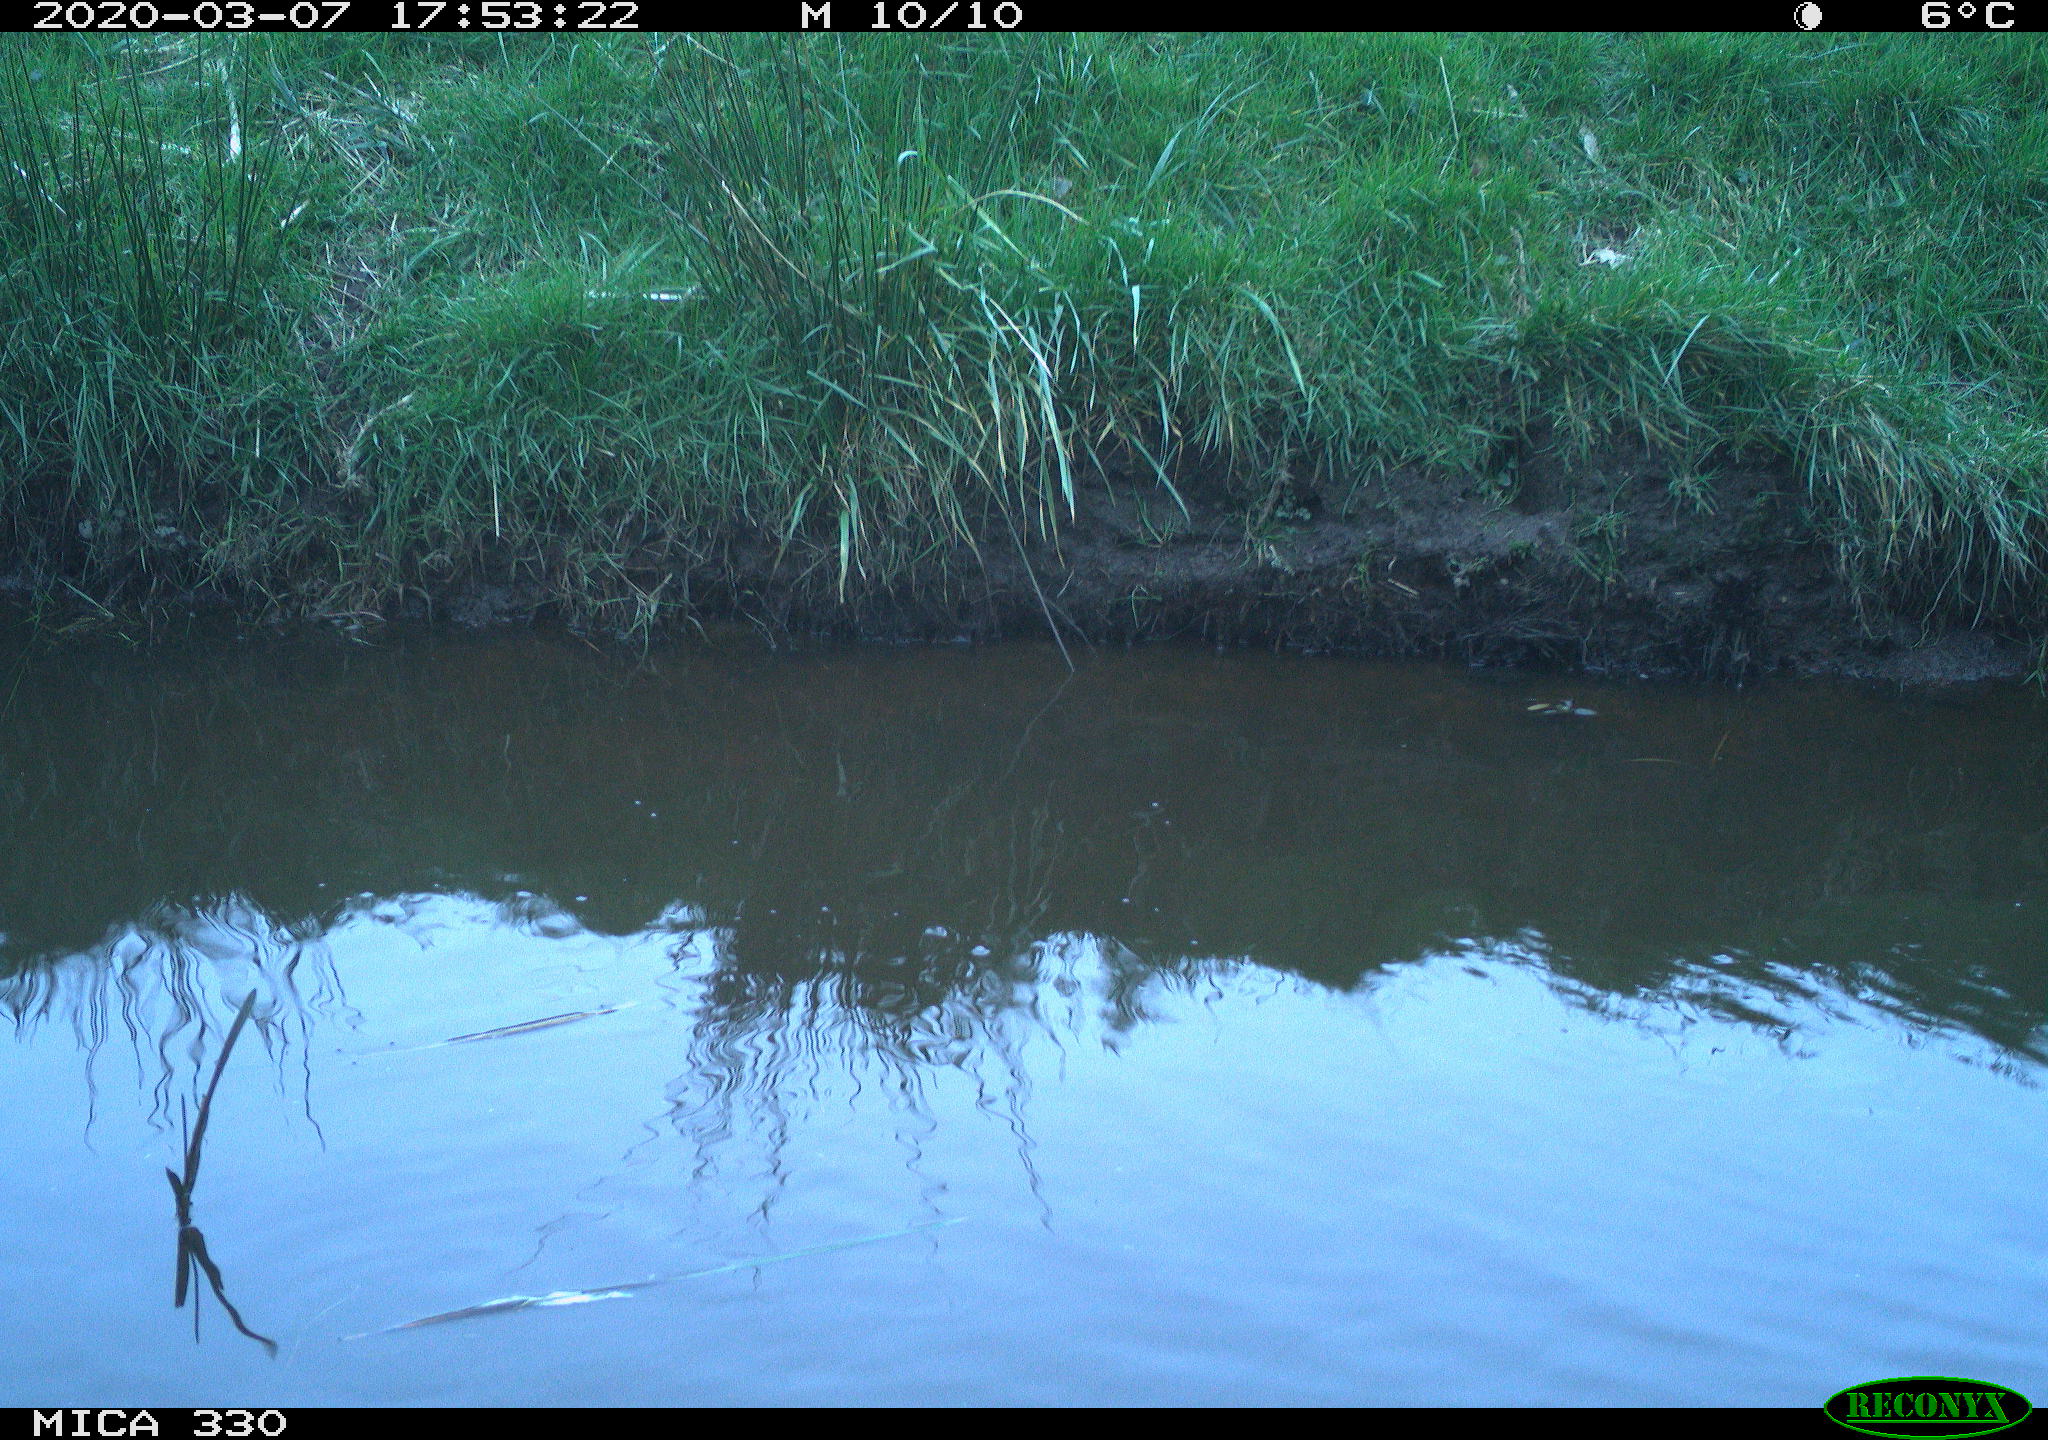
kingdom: Animalia
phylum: Chordata
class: Aves
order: Anseriformes
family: Anatidae
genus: Anas
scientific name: Anas platyrhynchos
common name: Mallard
